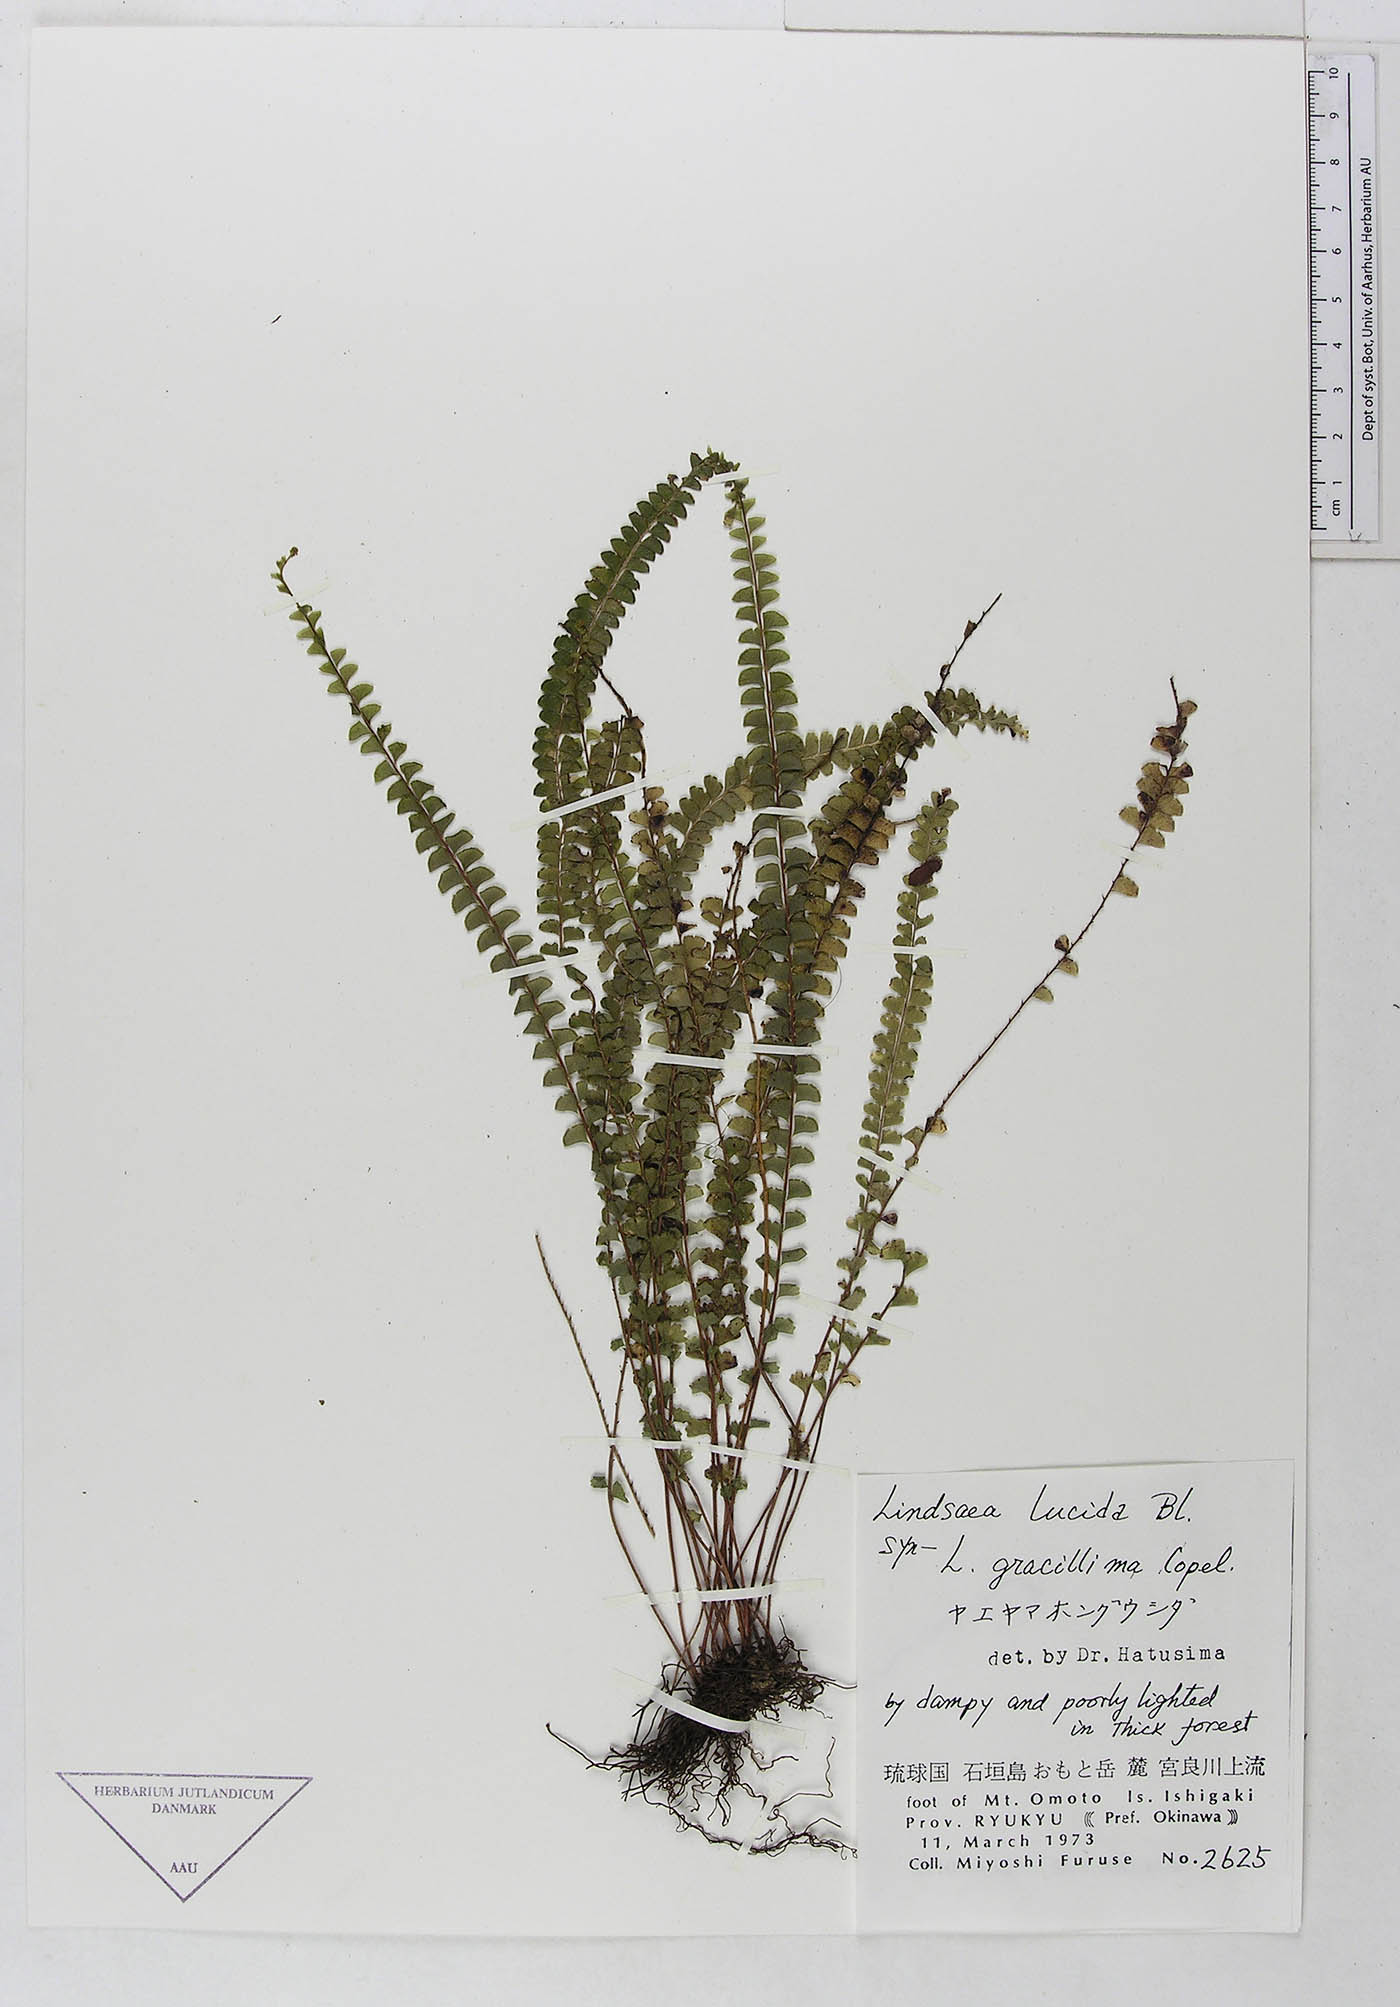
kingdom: Plantae
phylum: Tracheophyta
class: Polypodiopsida
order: Polypodiales
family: Lindsaeaceae
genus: Lindsaea
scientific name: Lindsaea lucida
